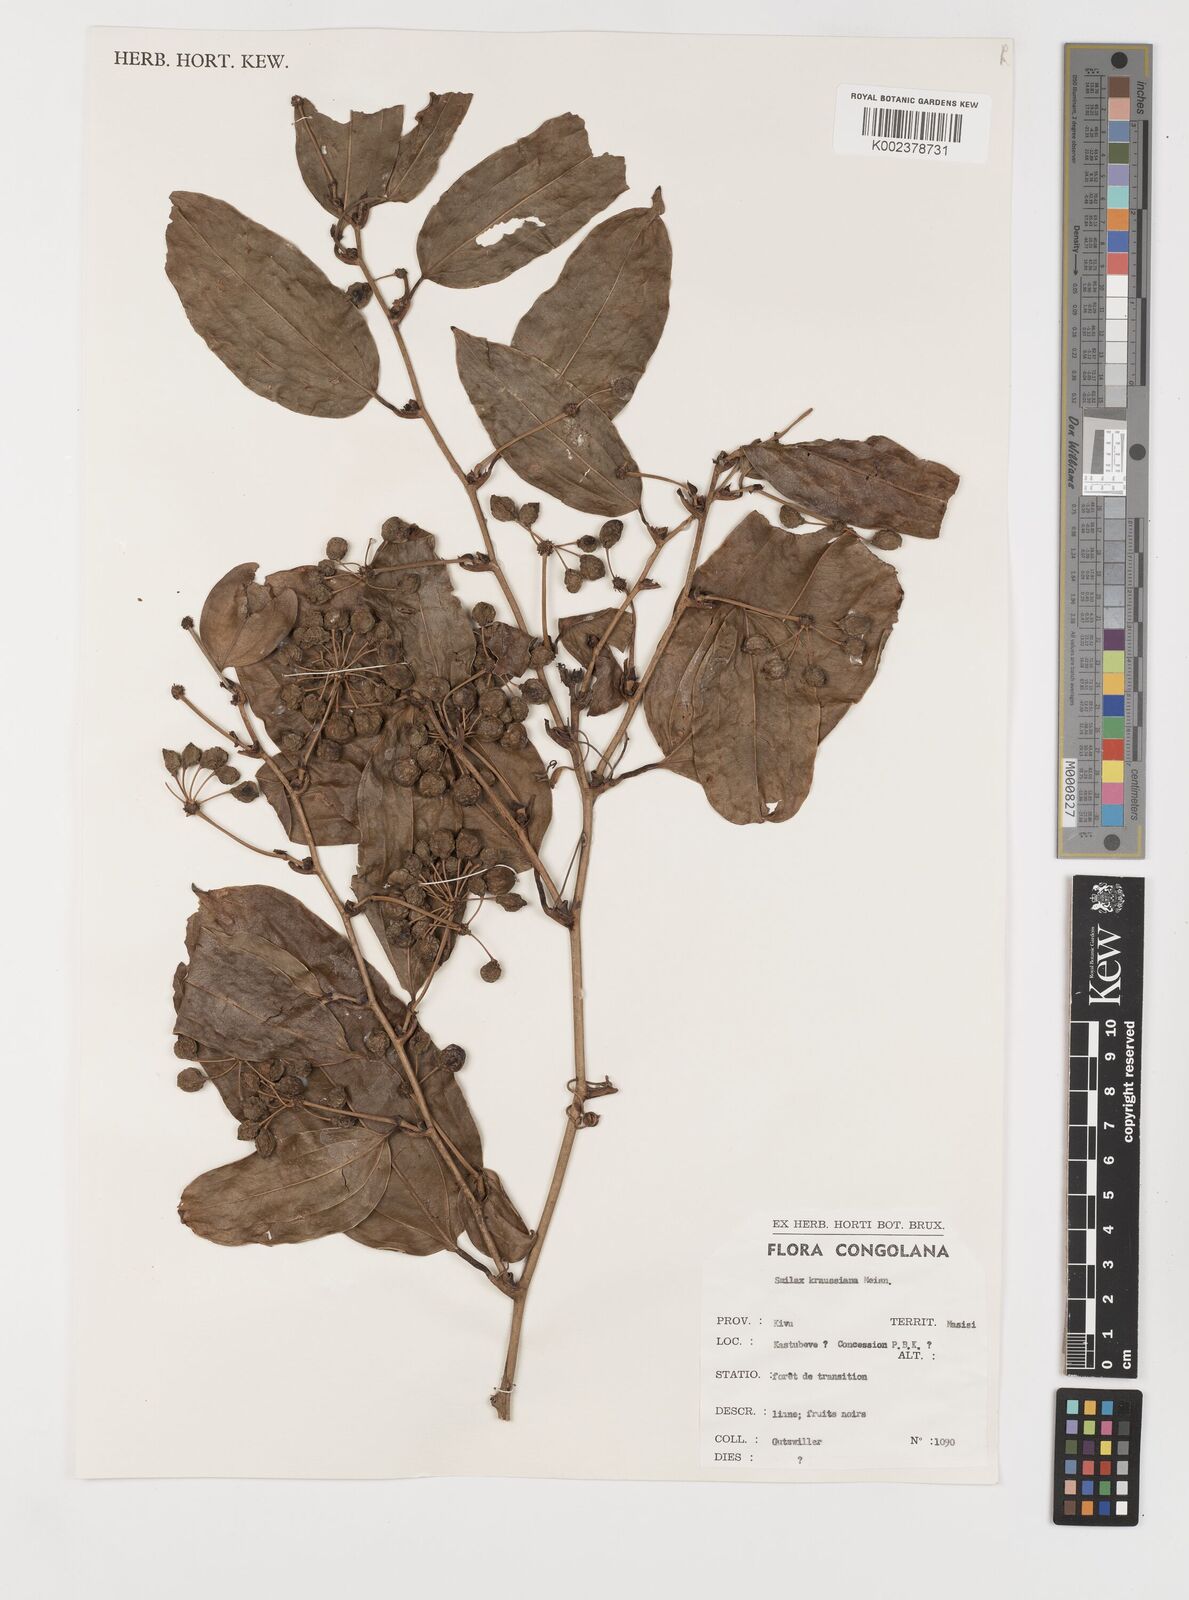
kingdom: Plantae
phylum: Tracheophyta
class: Liliopsida
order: Liliales
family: Smilacaceae
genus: Smilax
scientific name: Smilax anceps
